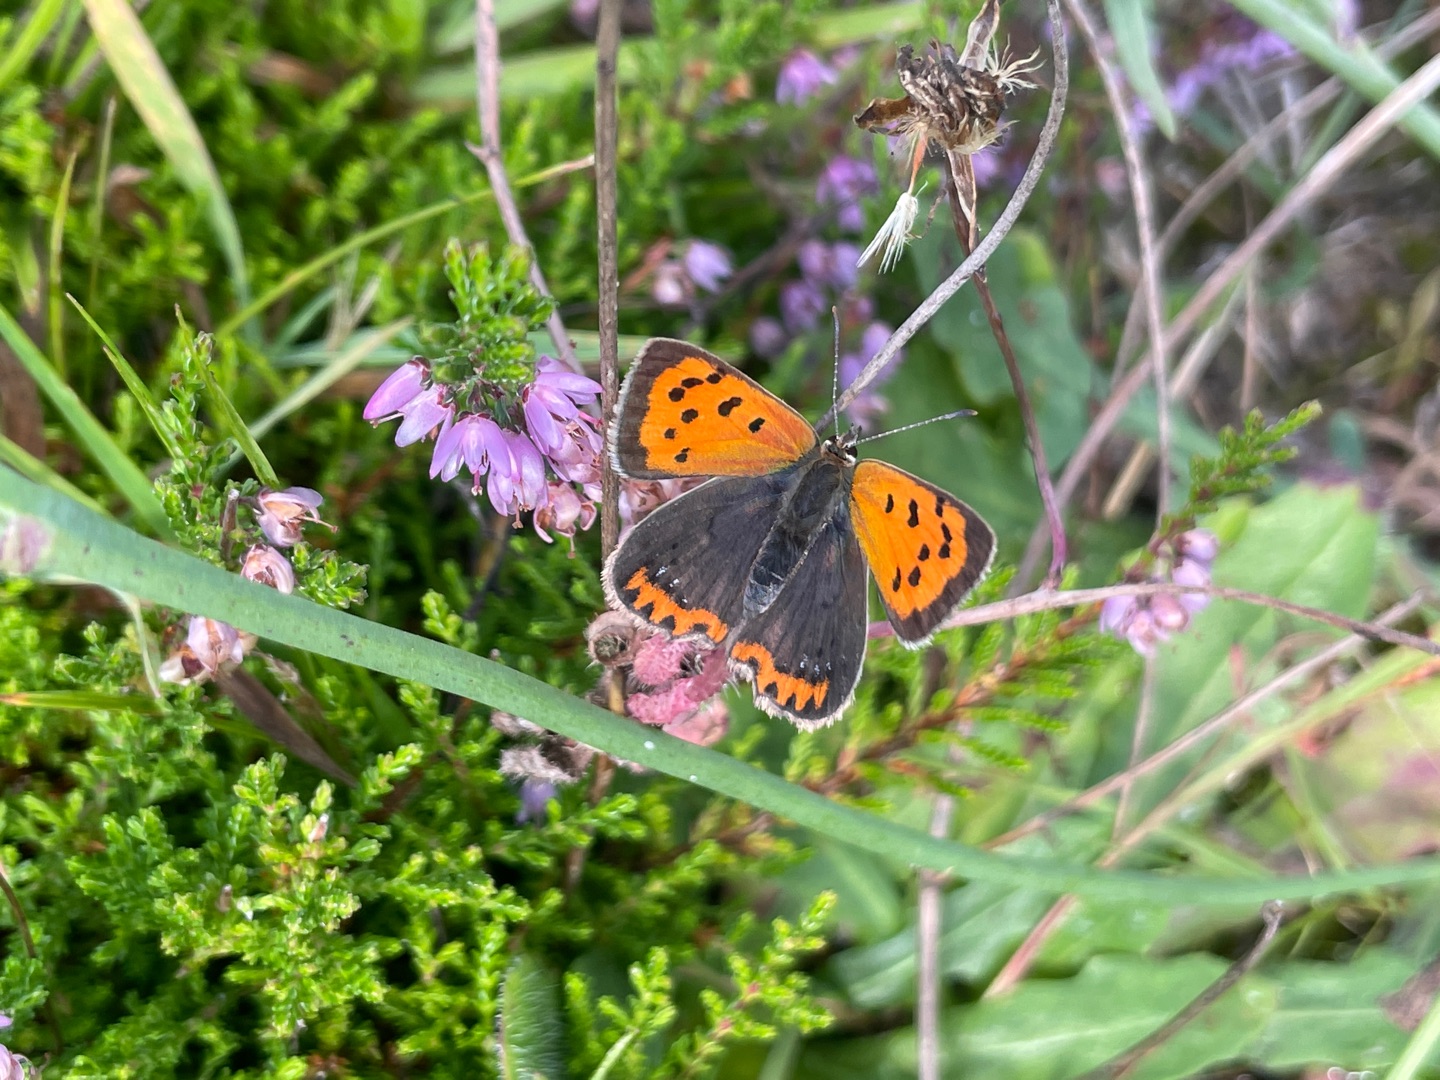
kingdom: Animalia
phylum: Arthropoda
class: Insecta
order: Lepidoptera
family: Lycaenidae
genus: Lycaena
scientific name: Lycaena phlaeas
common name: Lille ildfugl
